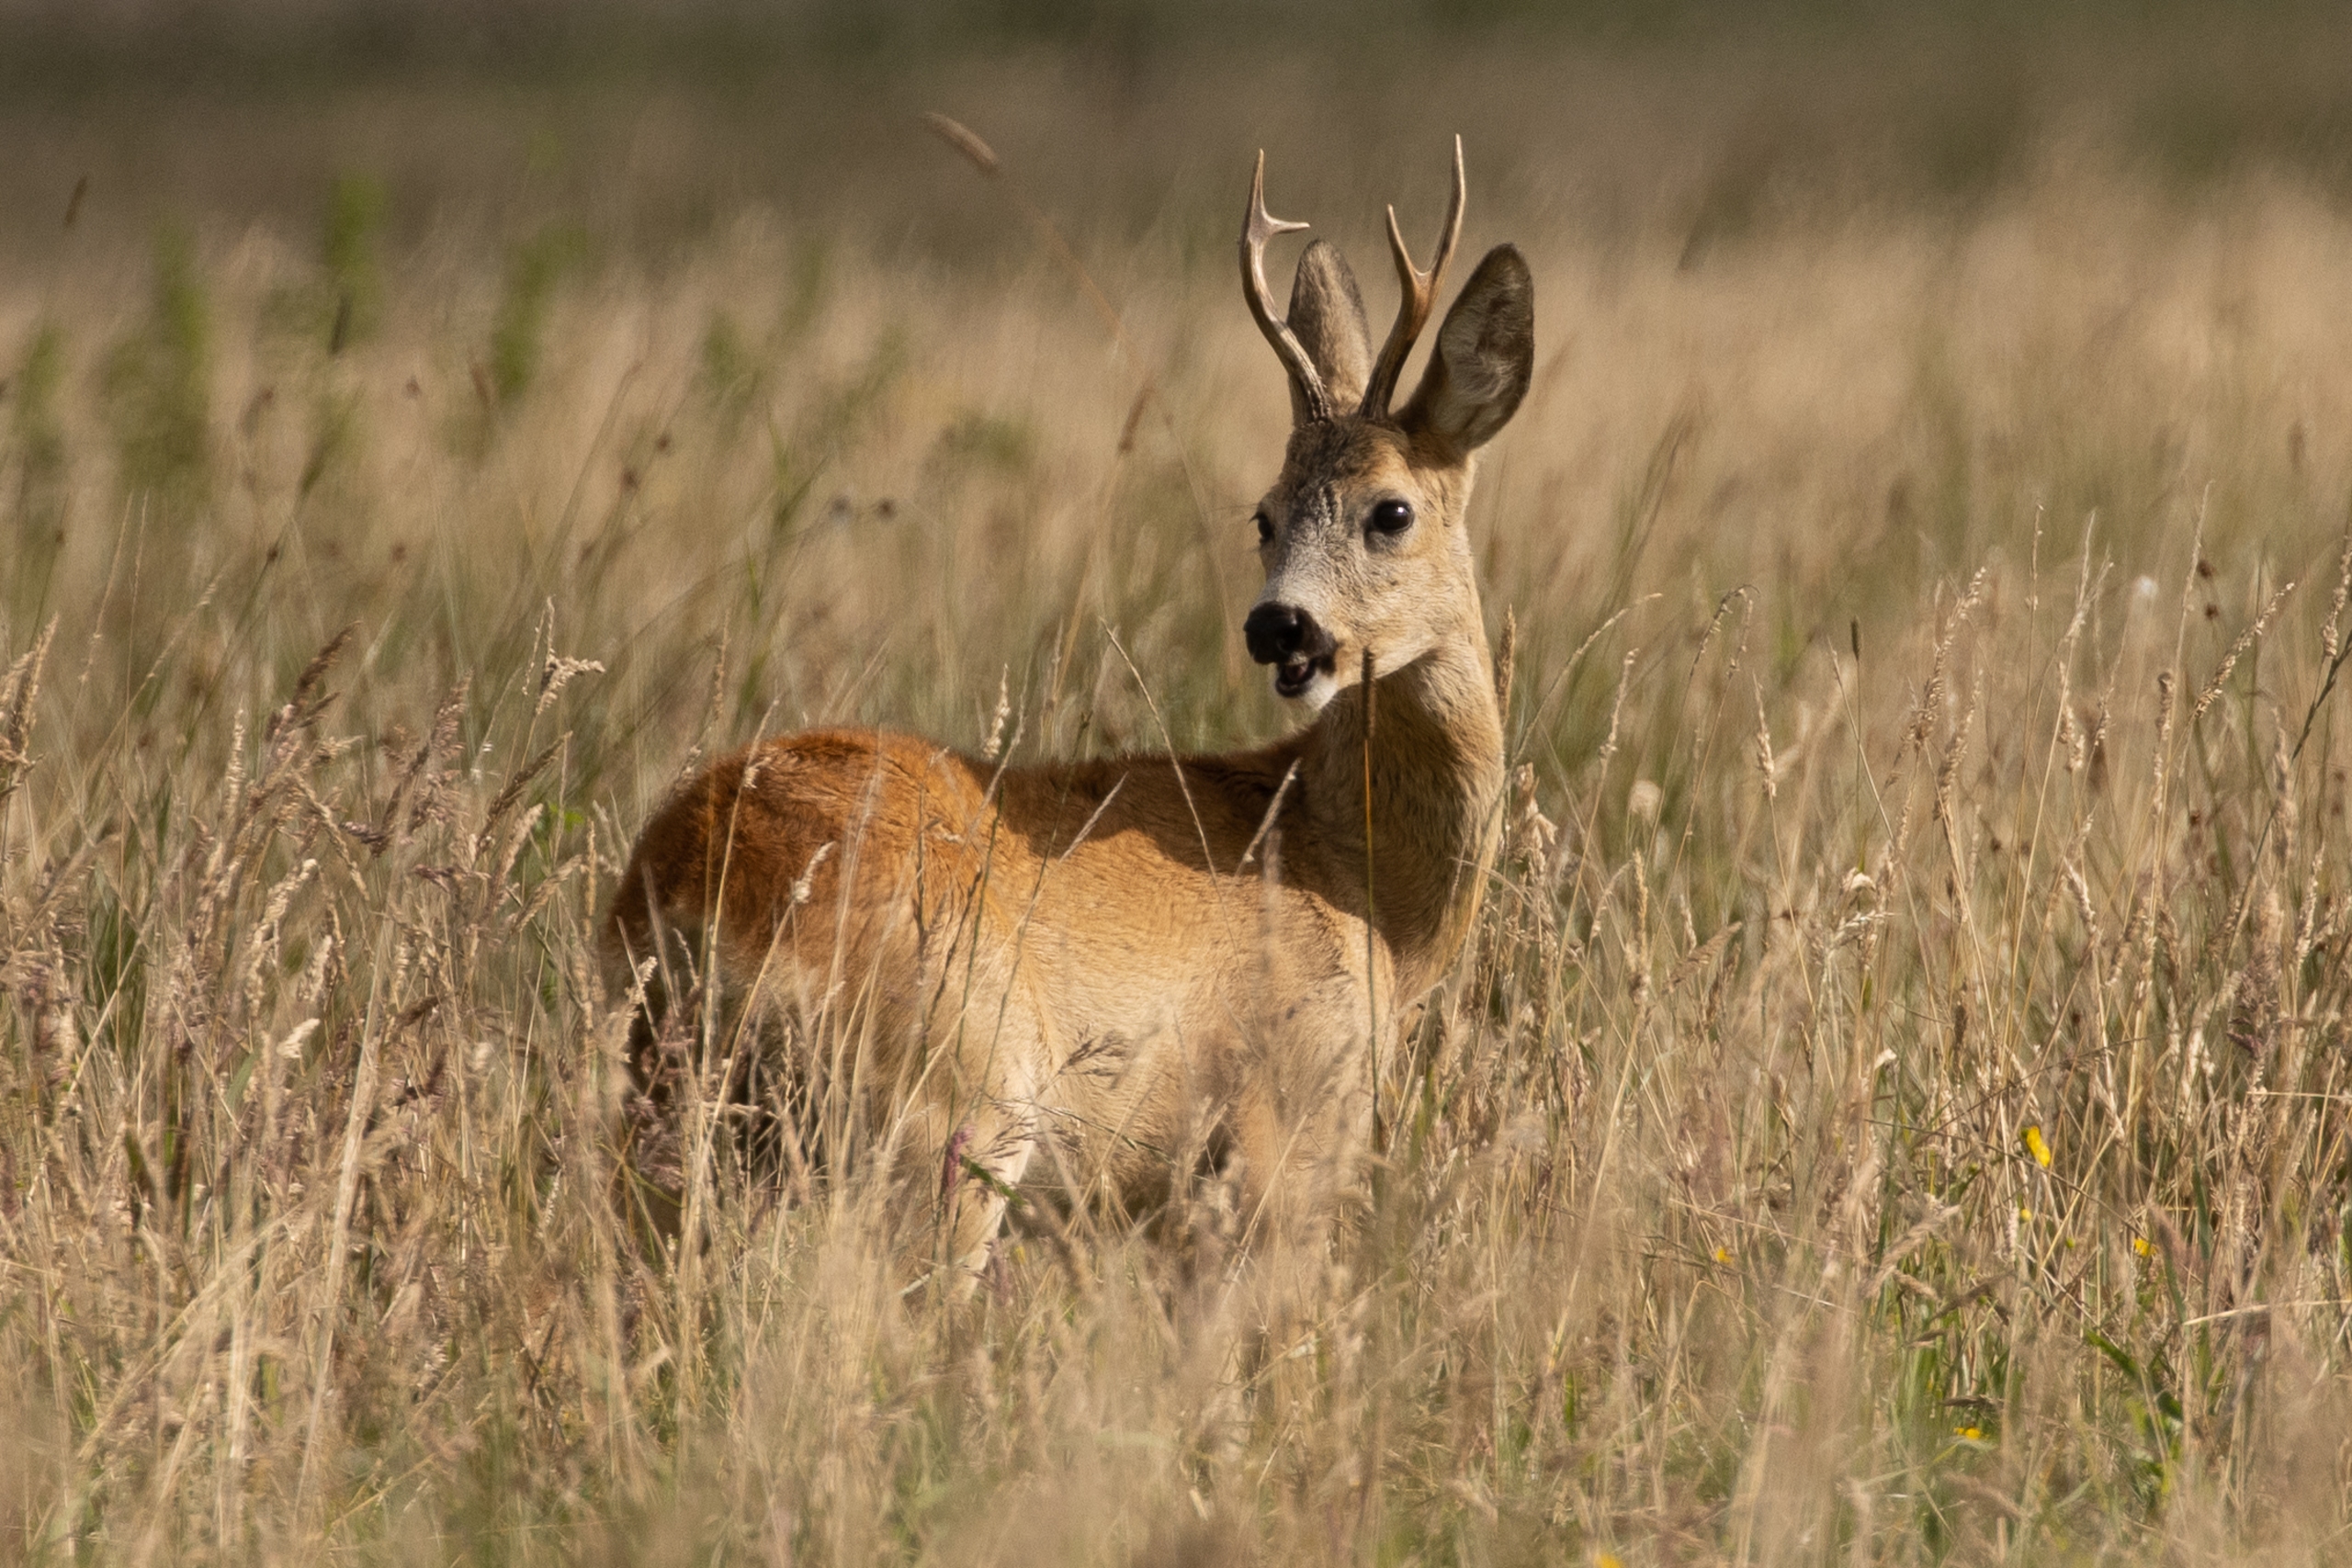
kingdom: Animalia
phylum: Chordata
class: Mammalia
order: Artiodactyla
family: Cervidae
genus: Capreolus
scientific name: Capreolus capreolus
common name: Rådyr
